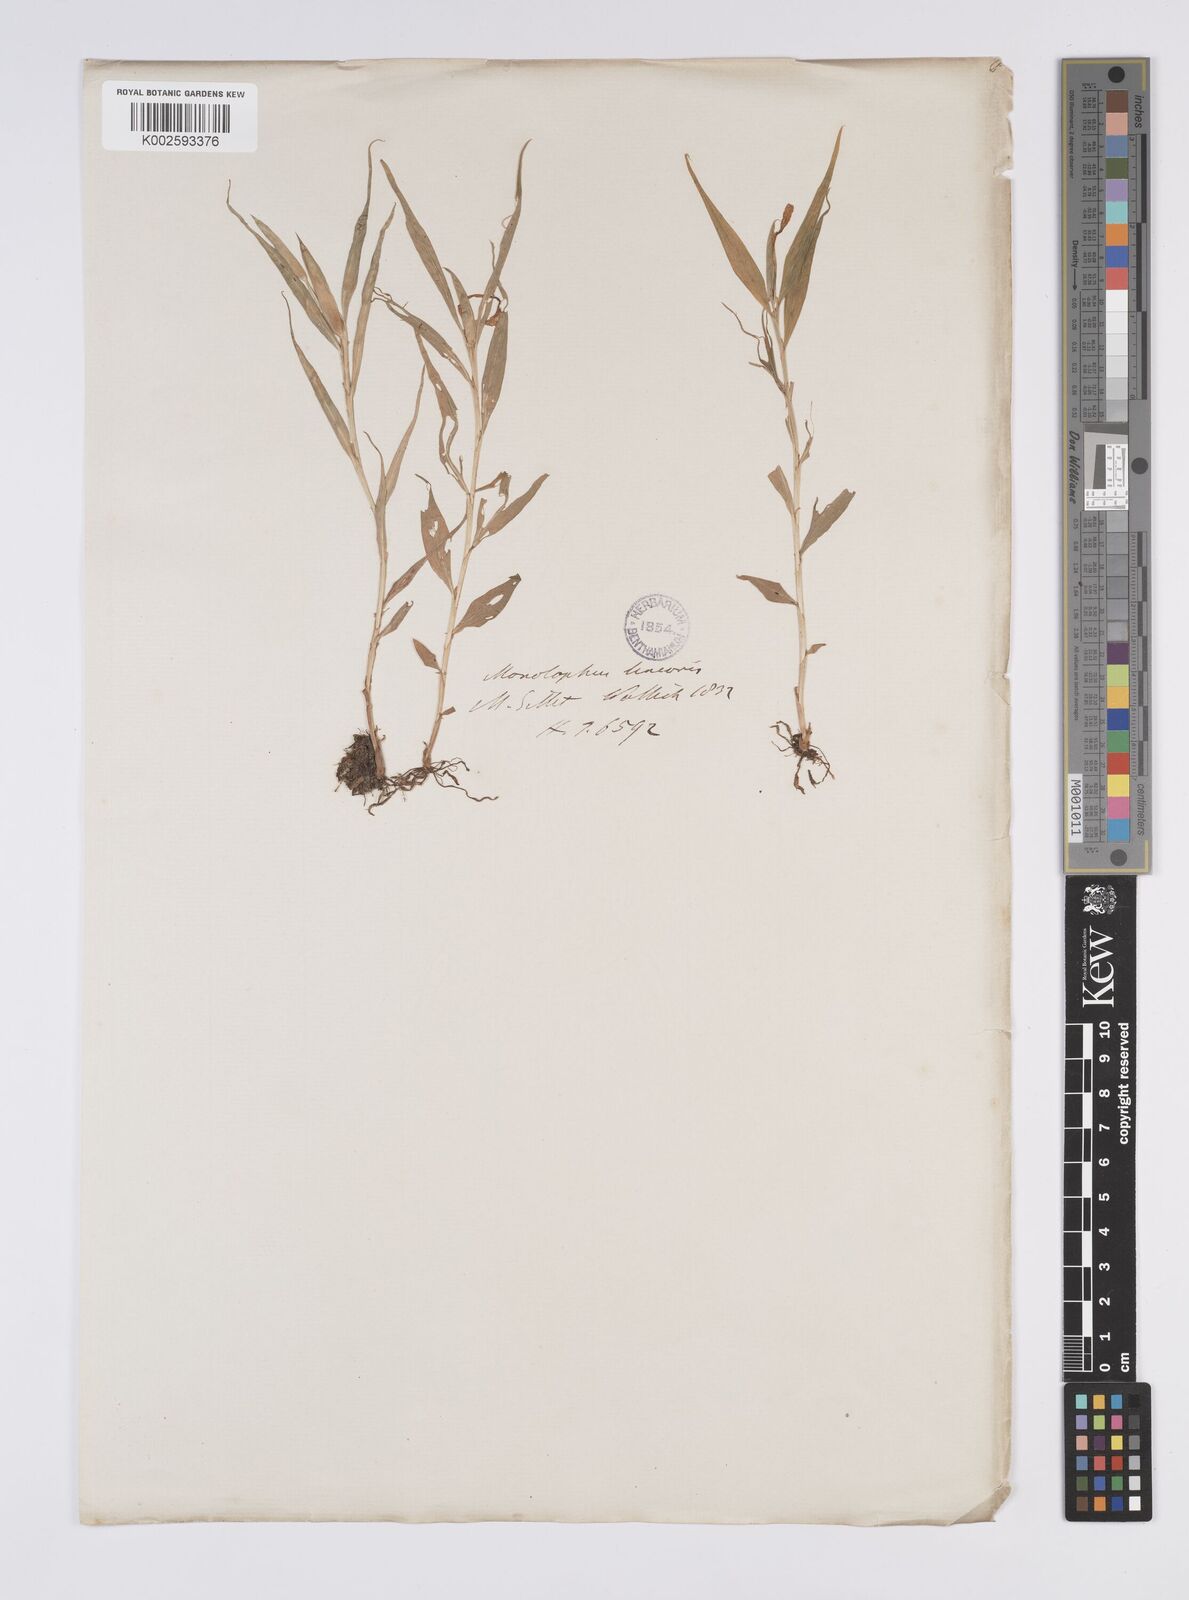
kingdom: Plantae
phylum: Tracheophyta
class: Liliopsida
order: Zingiberales
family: Zingiberaceae
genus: Caulokaempferia
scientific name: Caulokaempferia linearis
